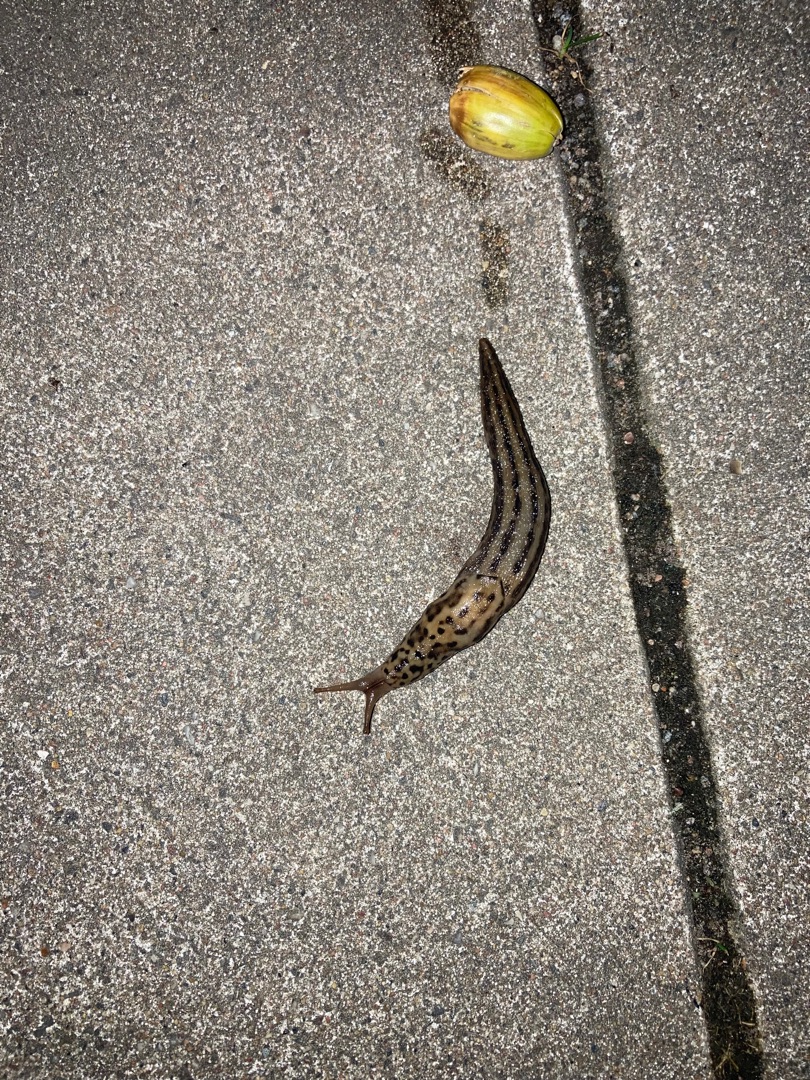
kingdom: Animalia
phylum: Mollusca
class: Gastropoda
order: Stylommatophora
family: Limacidae
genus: Limax
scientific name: Limax maximus
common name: Pantersnegl
